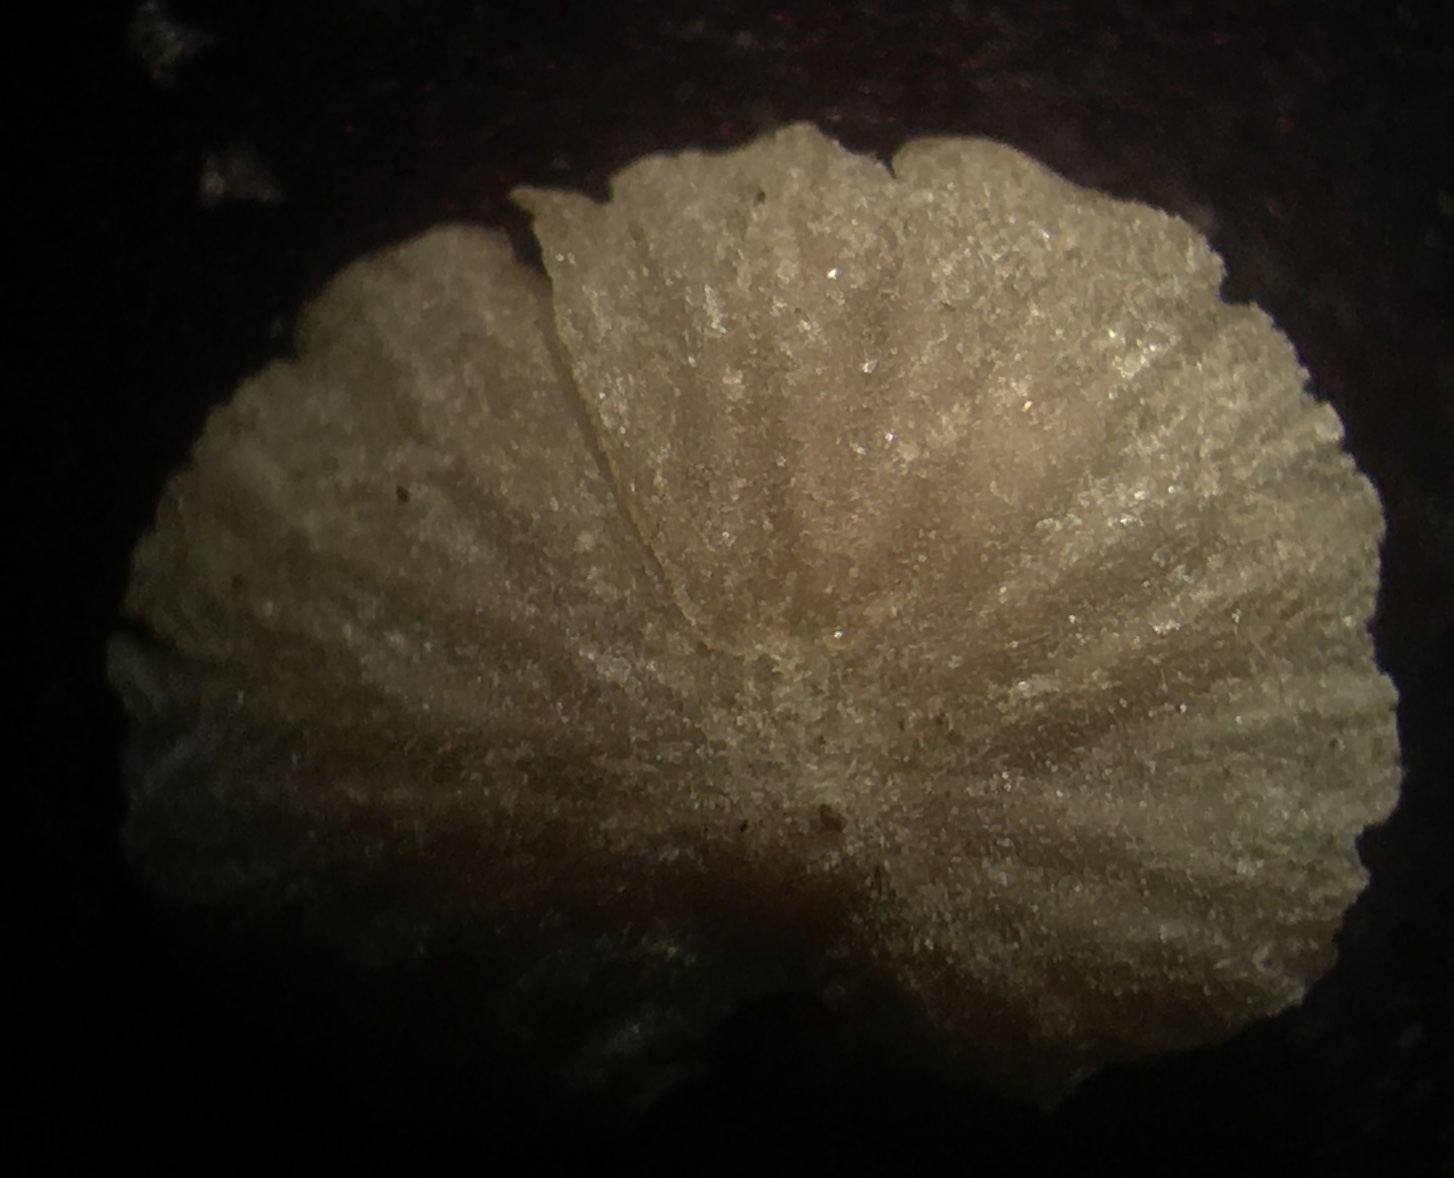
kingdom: Fungi
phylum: Basidiomycota
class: Agaricomycetes
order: Agaricales
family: Crepidotaceae
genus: Simocybe
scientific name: Simocybe haustellaris
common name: skæv skyggehat
